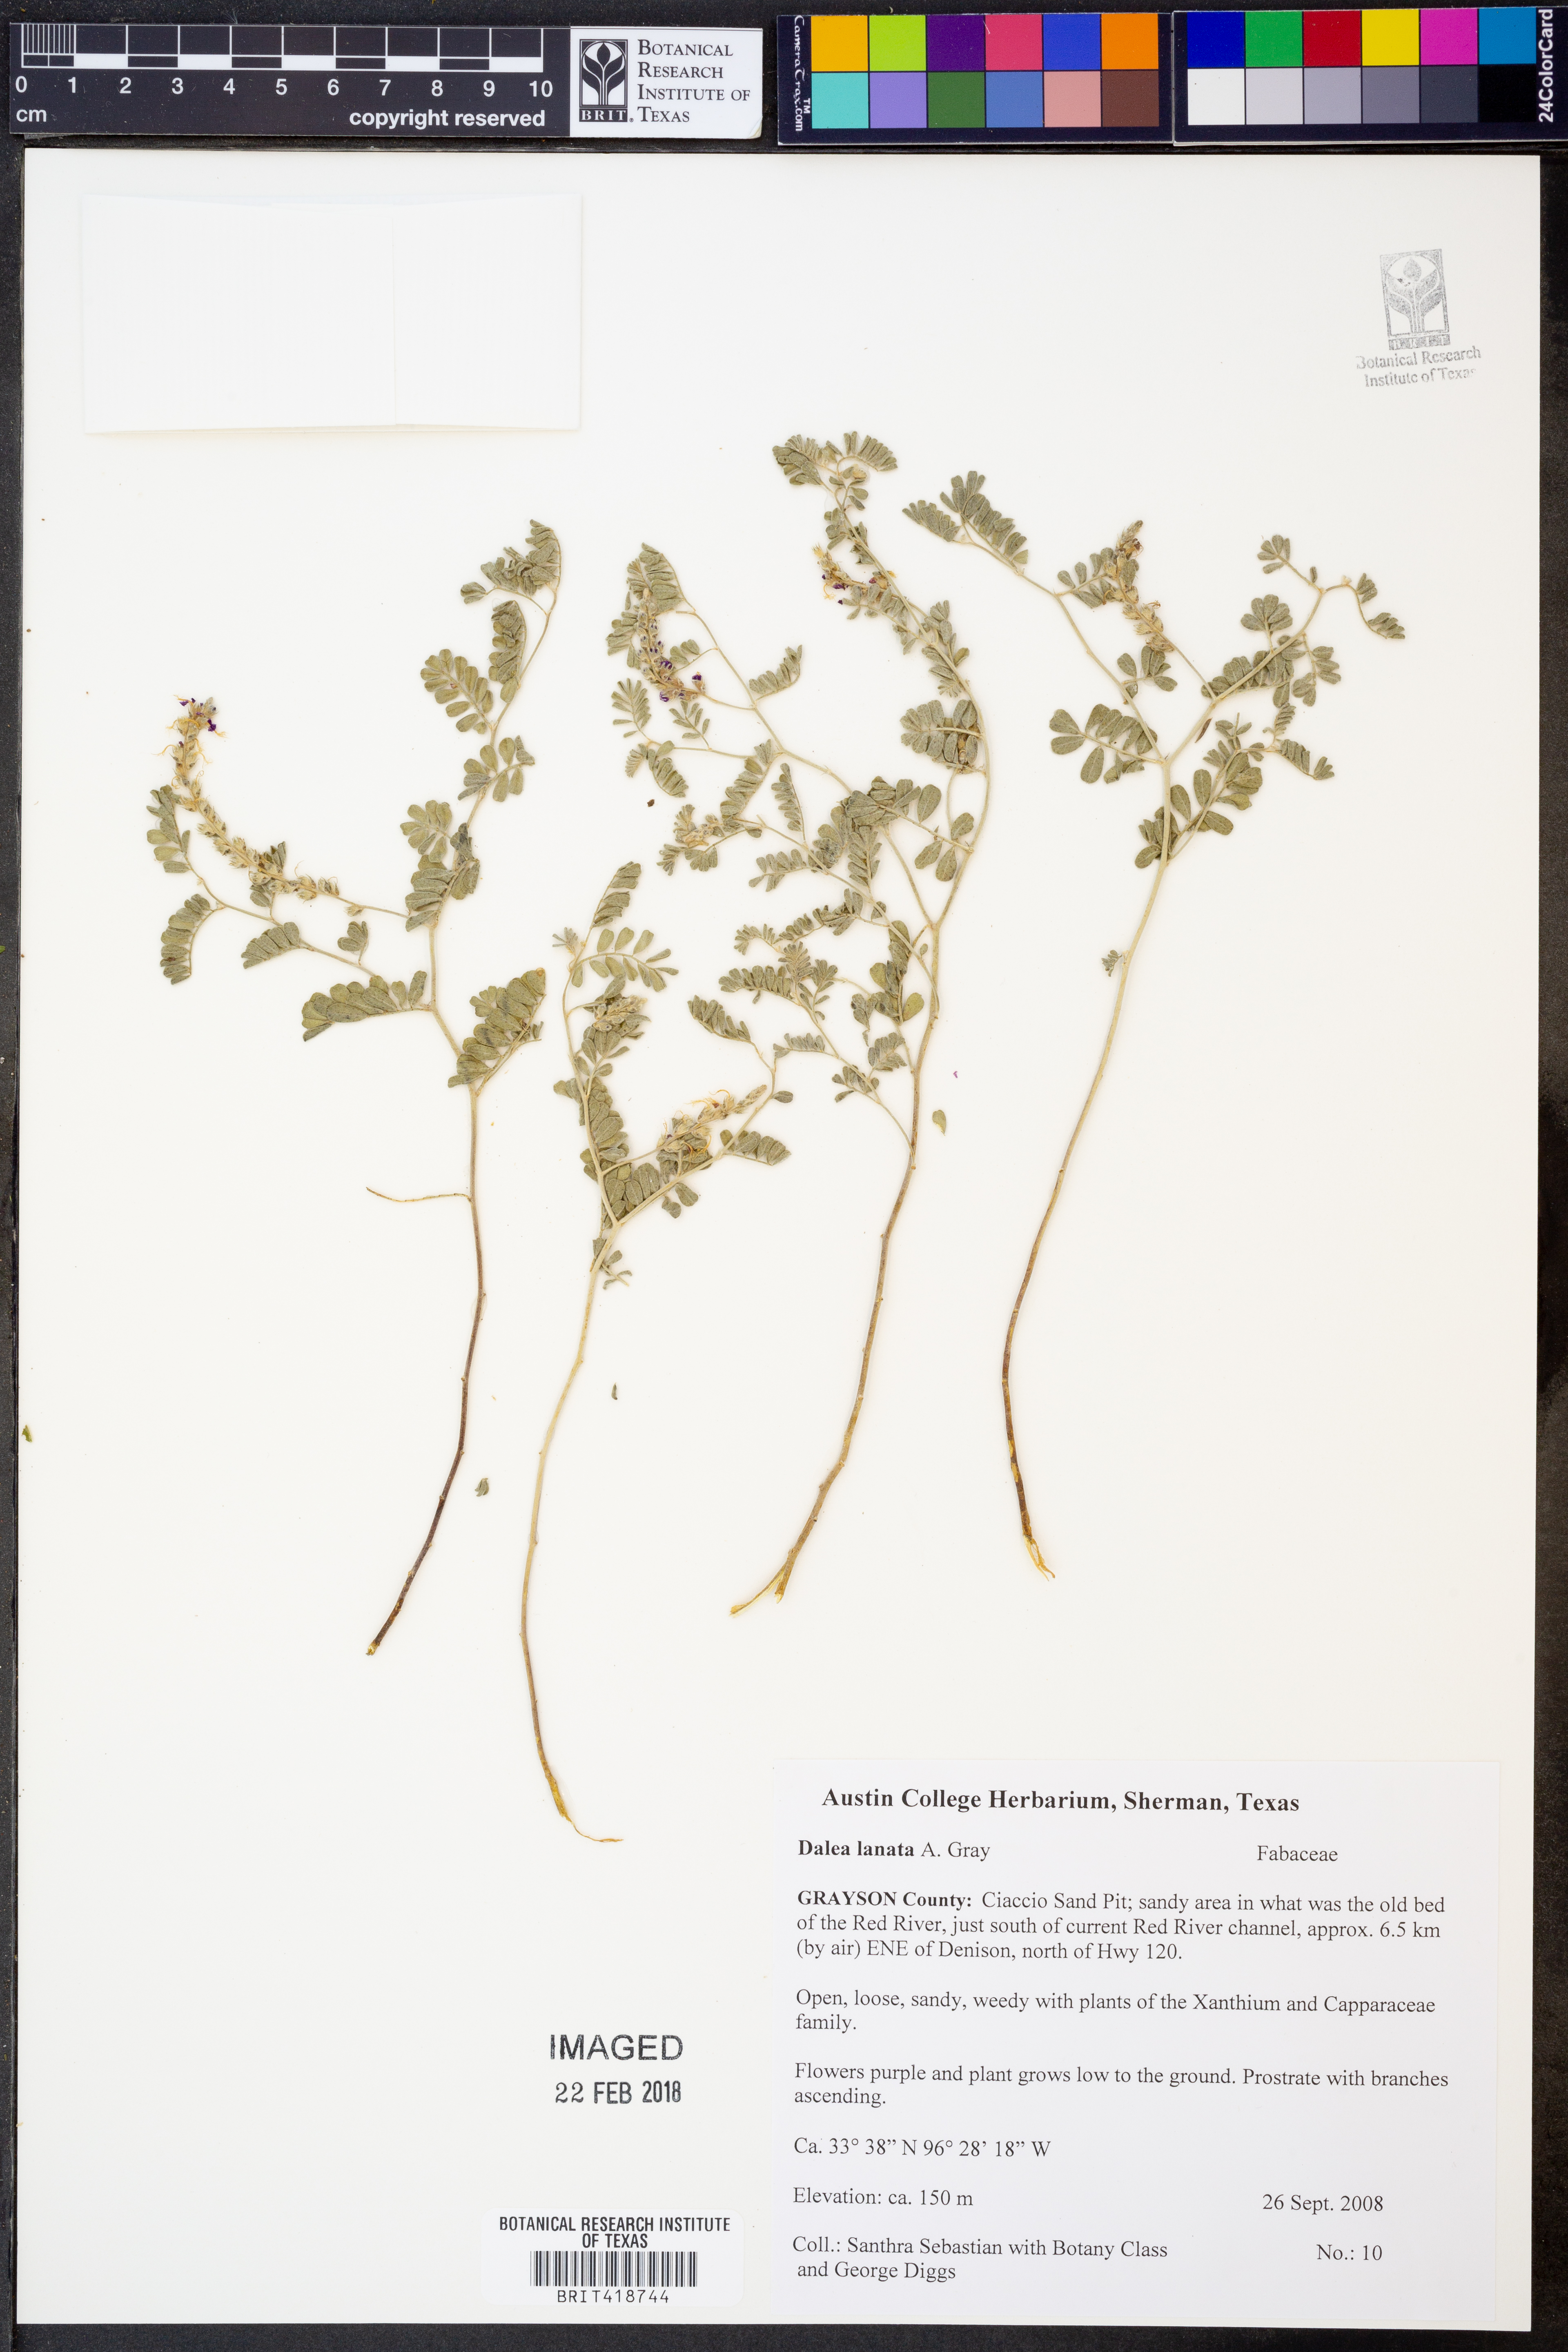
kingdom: Plantae
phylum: Tracheophyta
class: Magnoliopsida
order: Fabales
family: Fabaceae
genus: Dalea
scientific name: Dalea lanata
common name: Woolly dalea
